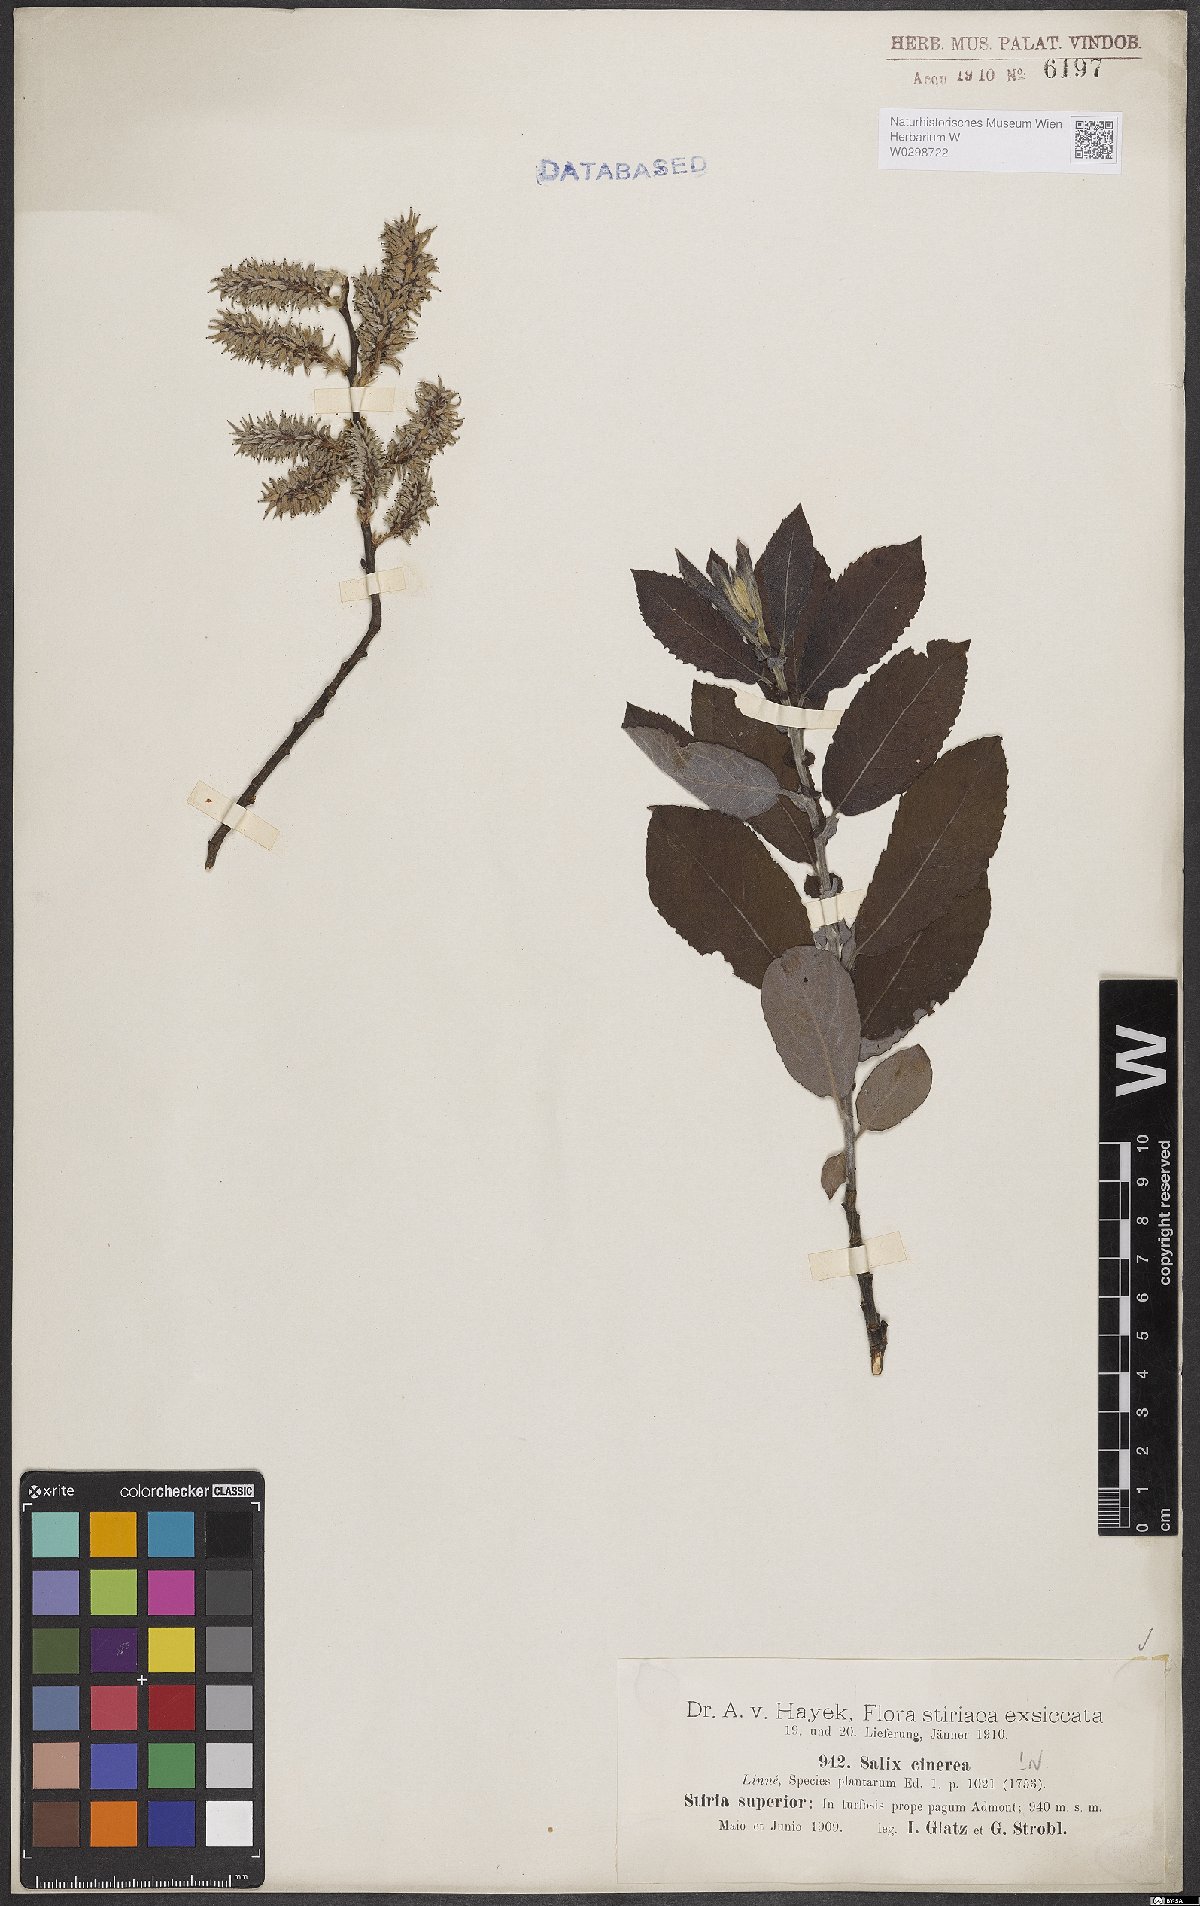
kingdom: Plantae
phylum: Tracheophyta
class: Magnoliopsida
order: Malpighiales
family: Salicaceae
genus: Salix
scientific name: Salix cinerea
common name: Common sallow
